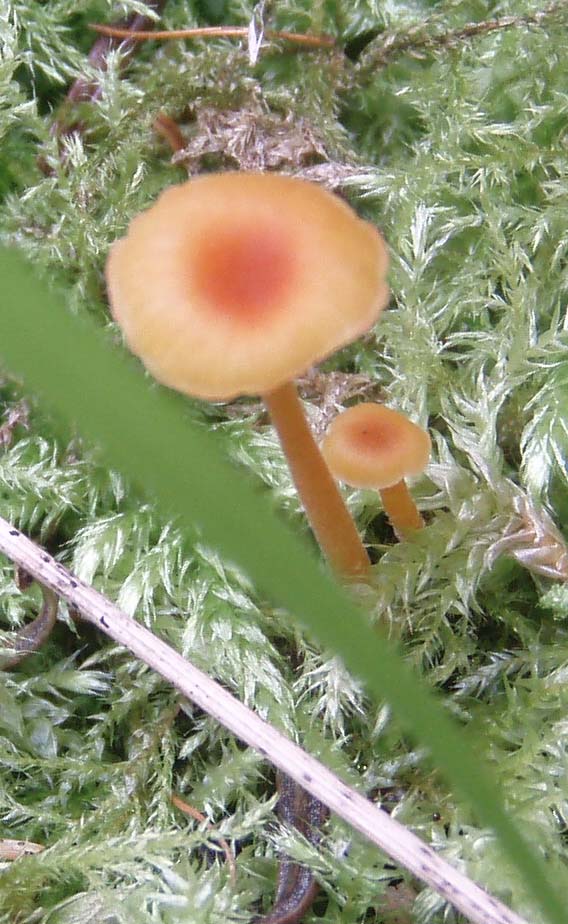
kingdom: Fungi
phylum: Basidiomycota
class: Agaricomycetes
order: Hymenochaetales
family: Rickenellaceae
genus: Rickenella
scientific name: Rickenella fibula
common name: orange mosnavlehat
